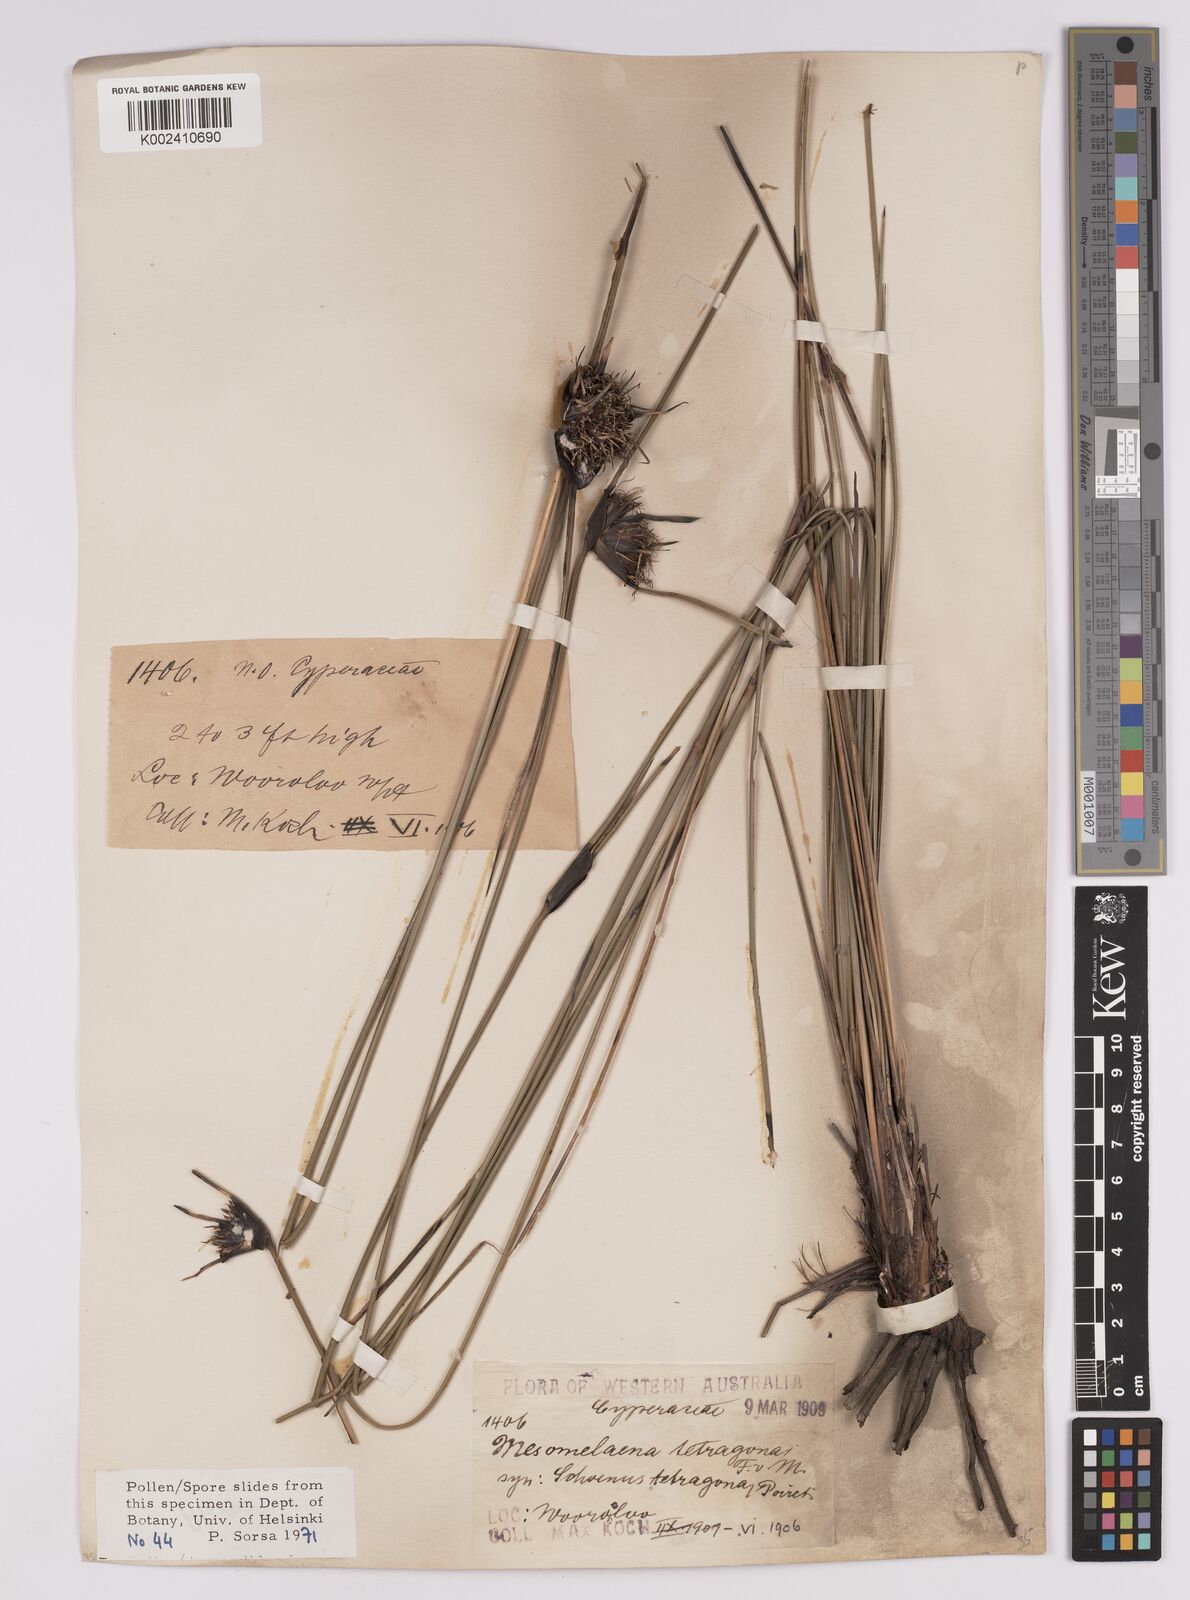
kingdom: Plantae
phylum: Tracheophyta
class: Liliopsida
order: Poales
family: Cyperaceae
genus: Mesomelaena
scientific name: Mesomelaena tetragona
